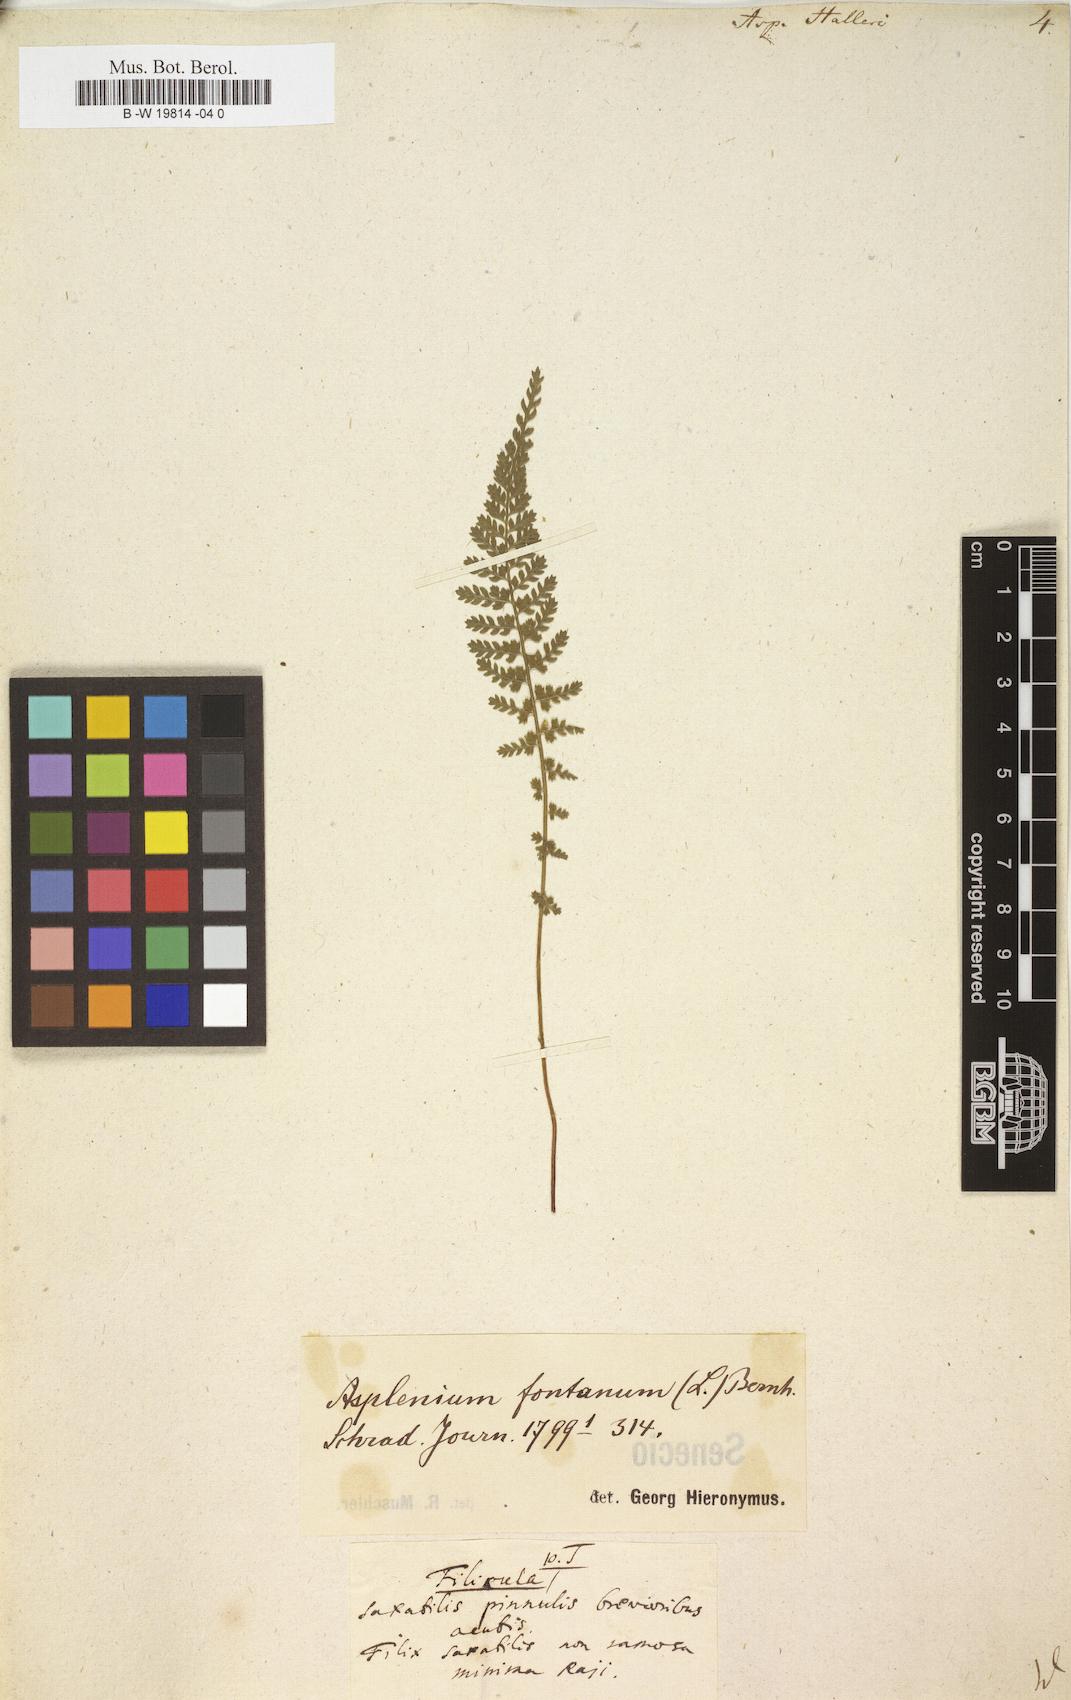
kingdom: Plantae
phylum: Tracheophyta
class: Polypodiopsida
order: Polypodiales
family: Aspleniaceae
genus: Asplenium
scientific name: Asplenium fontanum
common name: Fountain spleenwort
